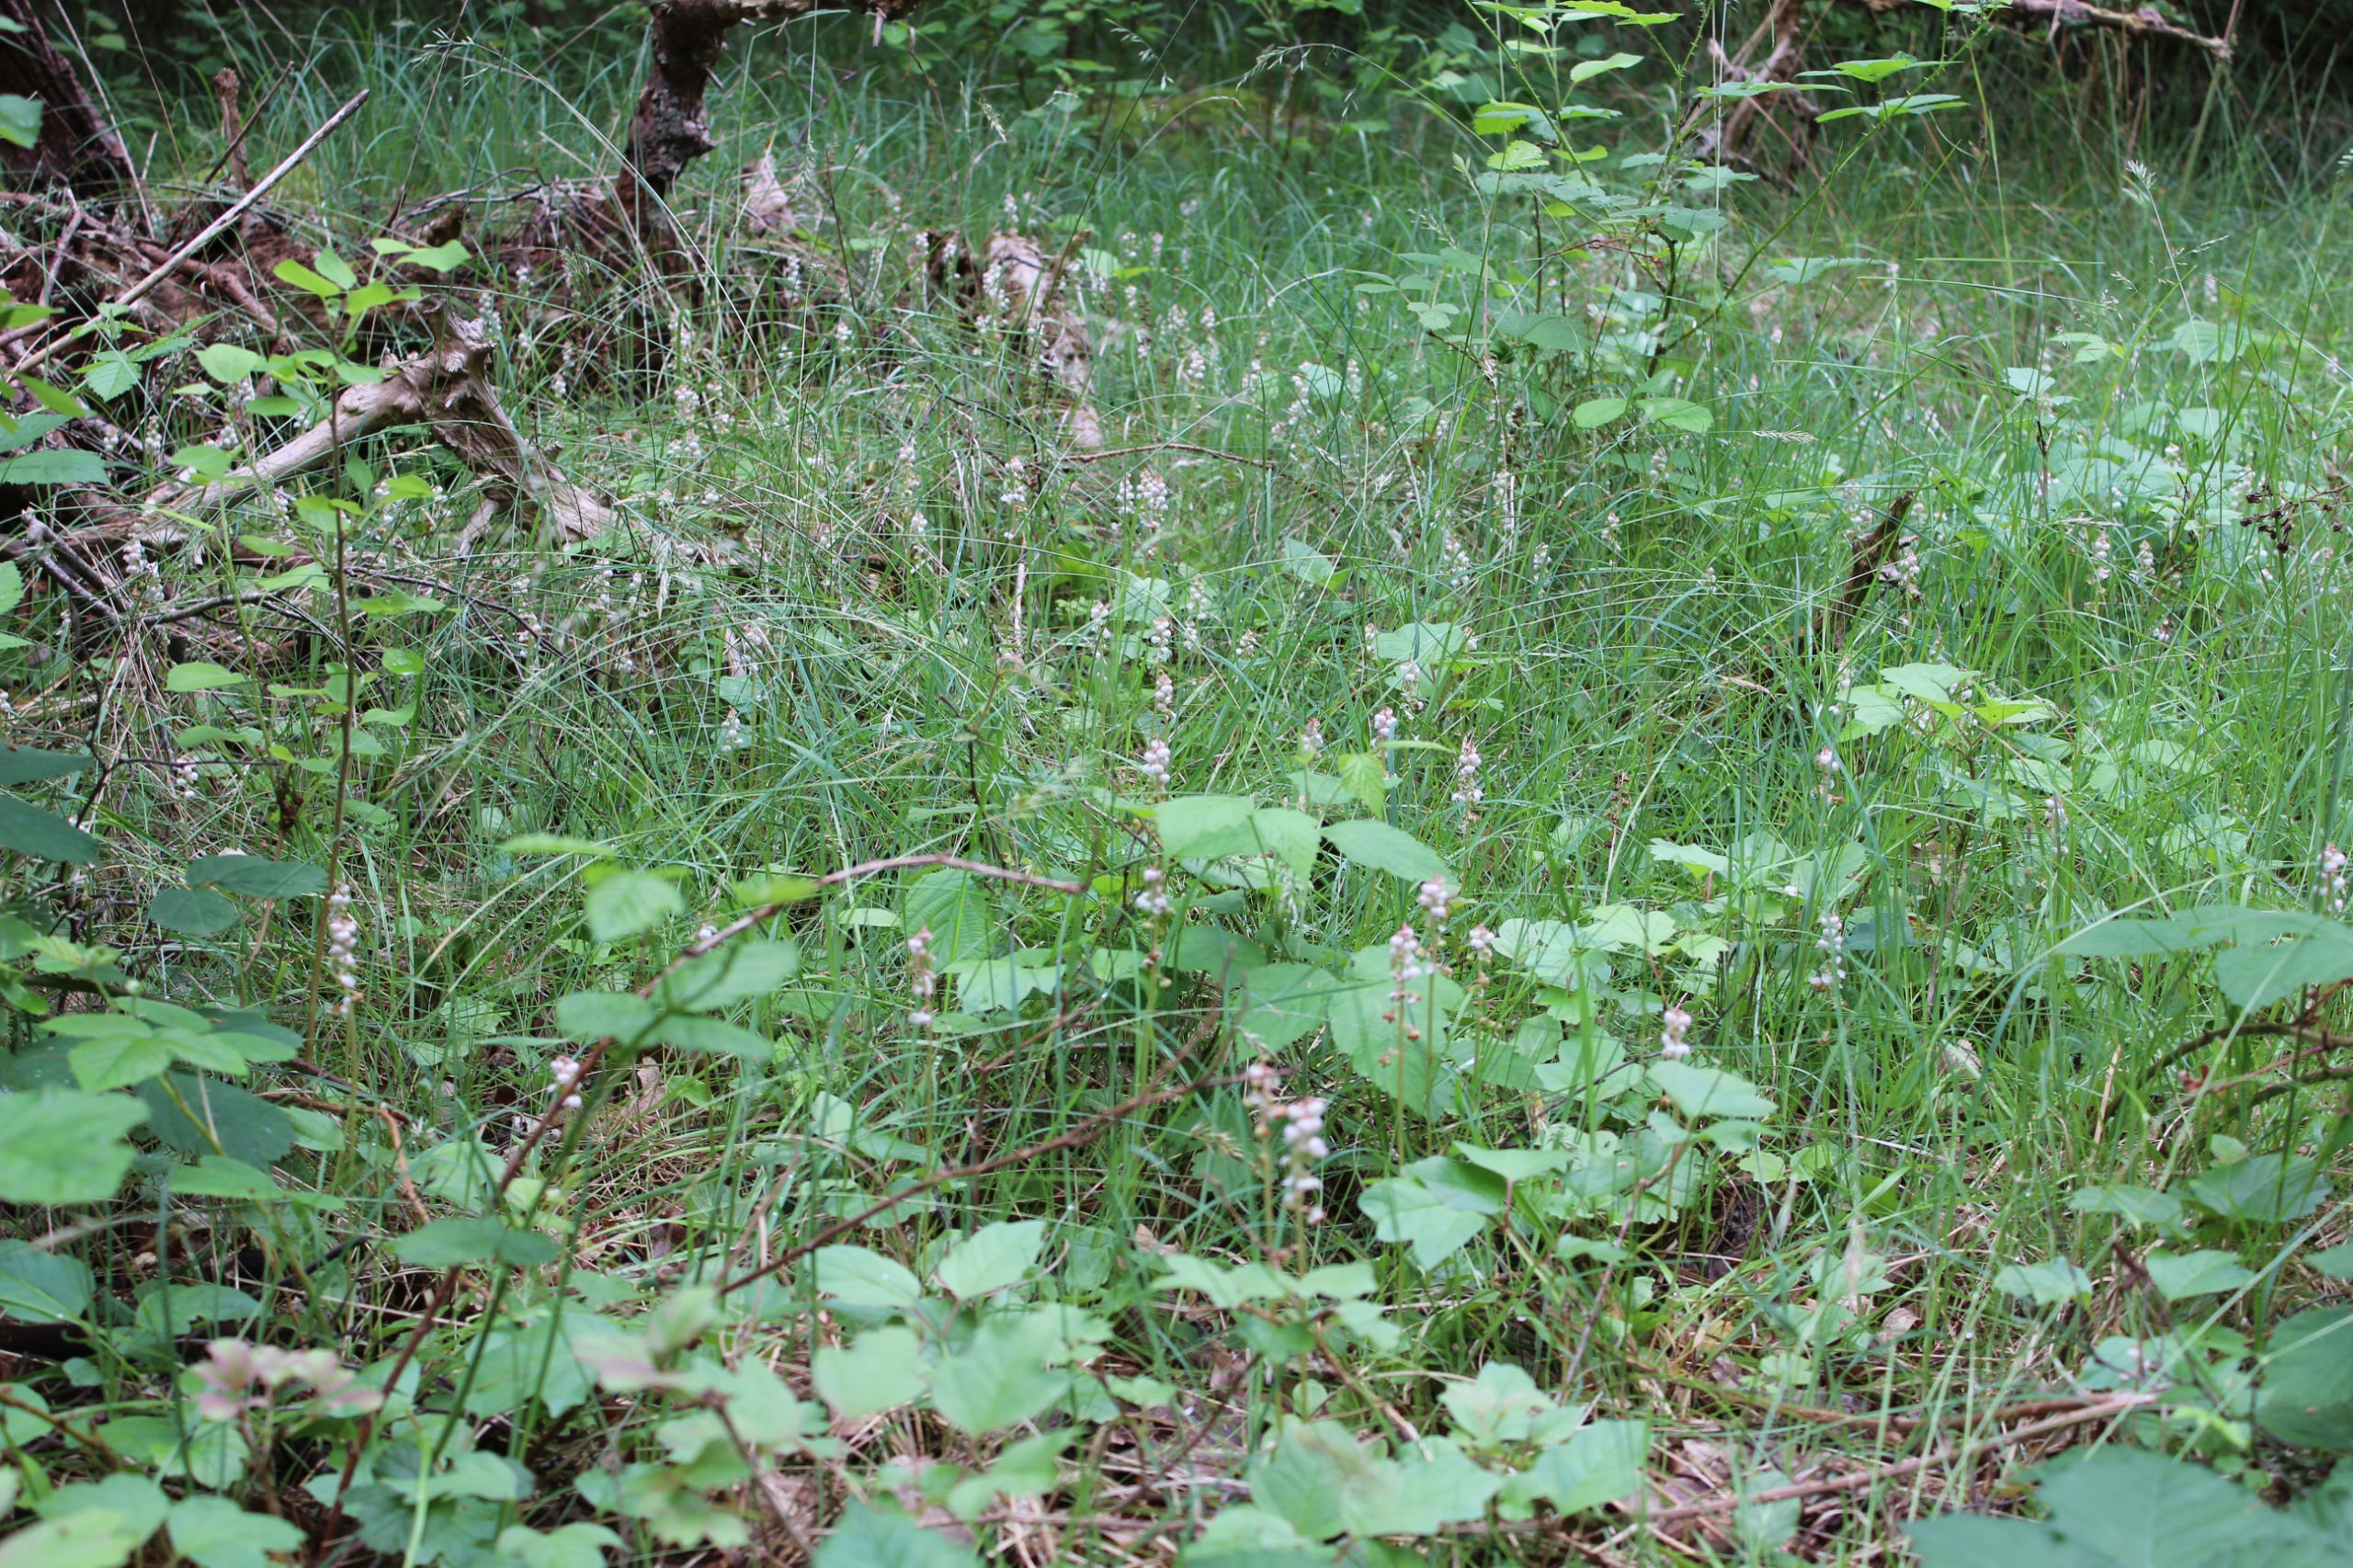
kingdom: Plantae
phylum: Tracheophyta
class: Magnoliopsida
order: Ericales
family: Ericaceae
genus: Pyrola
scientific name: Pyrola minor
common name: Liden vintergrøn
